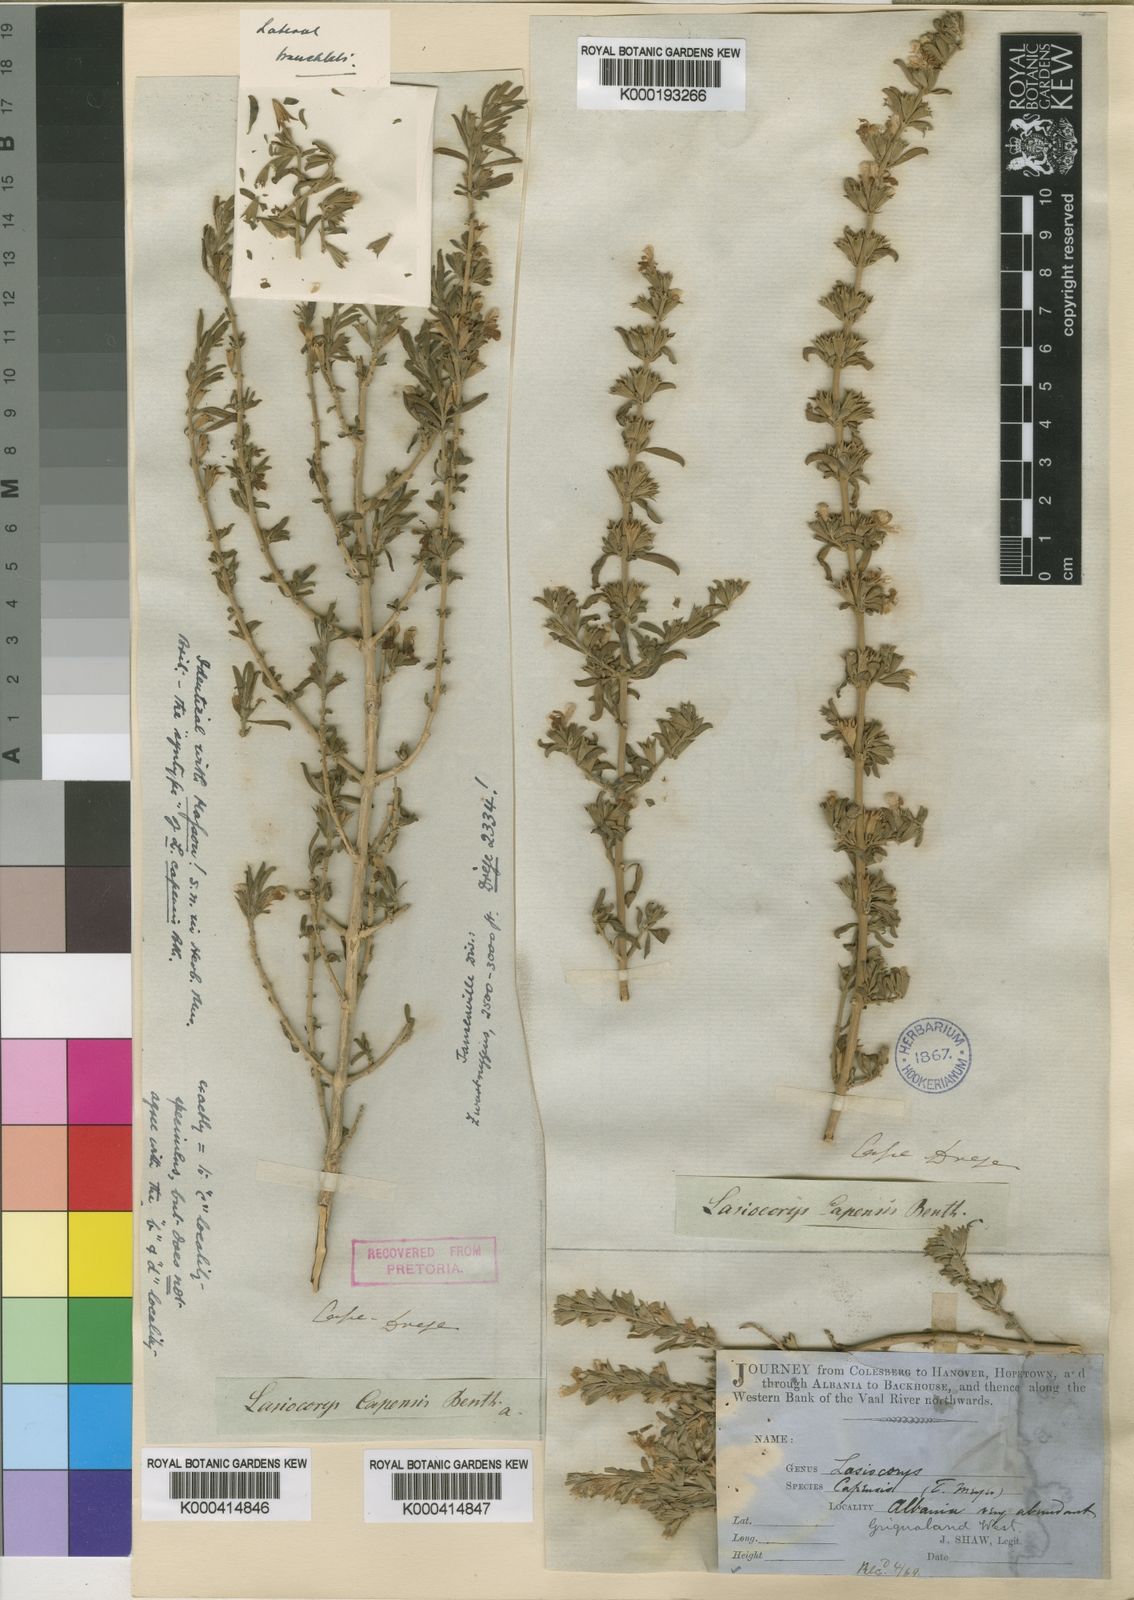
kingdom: Plantae
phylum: Tracheophyta
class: Magnoliopsida
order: Lamiales
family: Lamiaceae
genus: Leucas
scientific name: Leucas capensis
